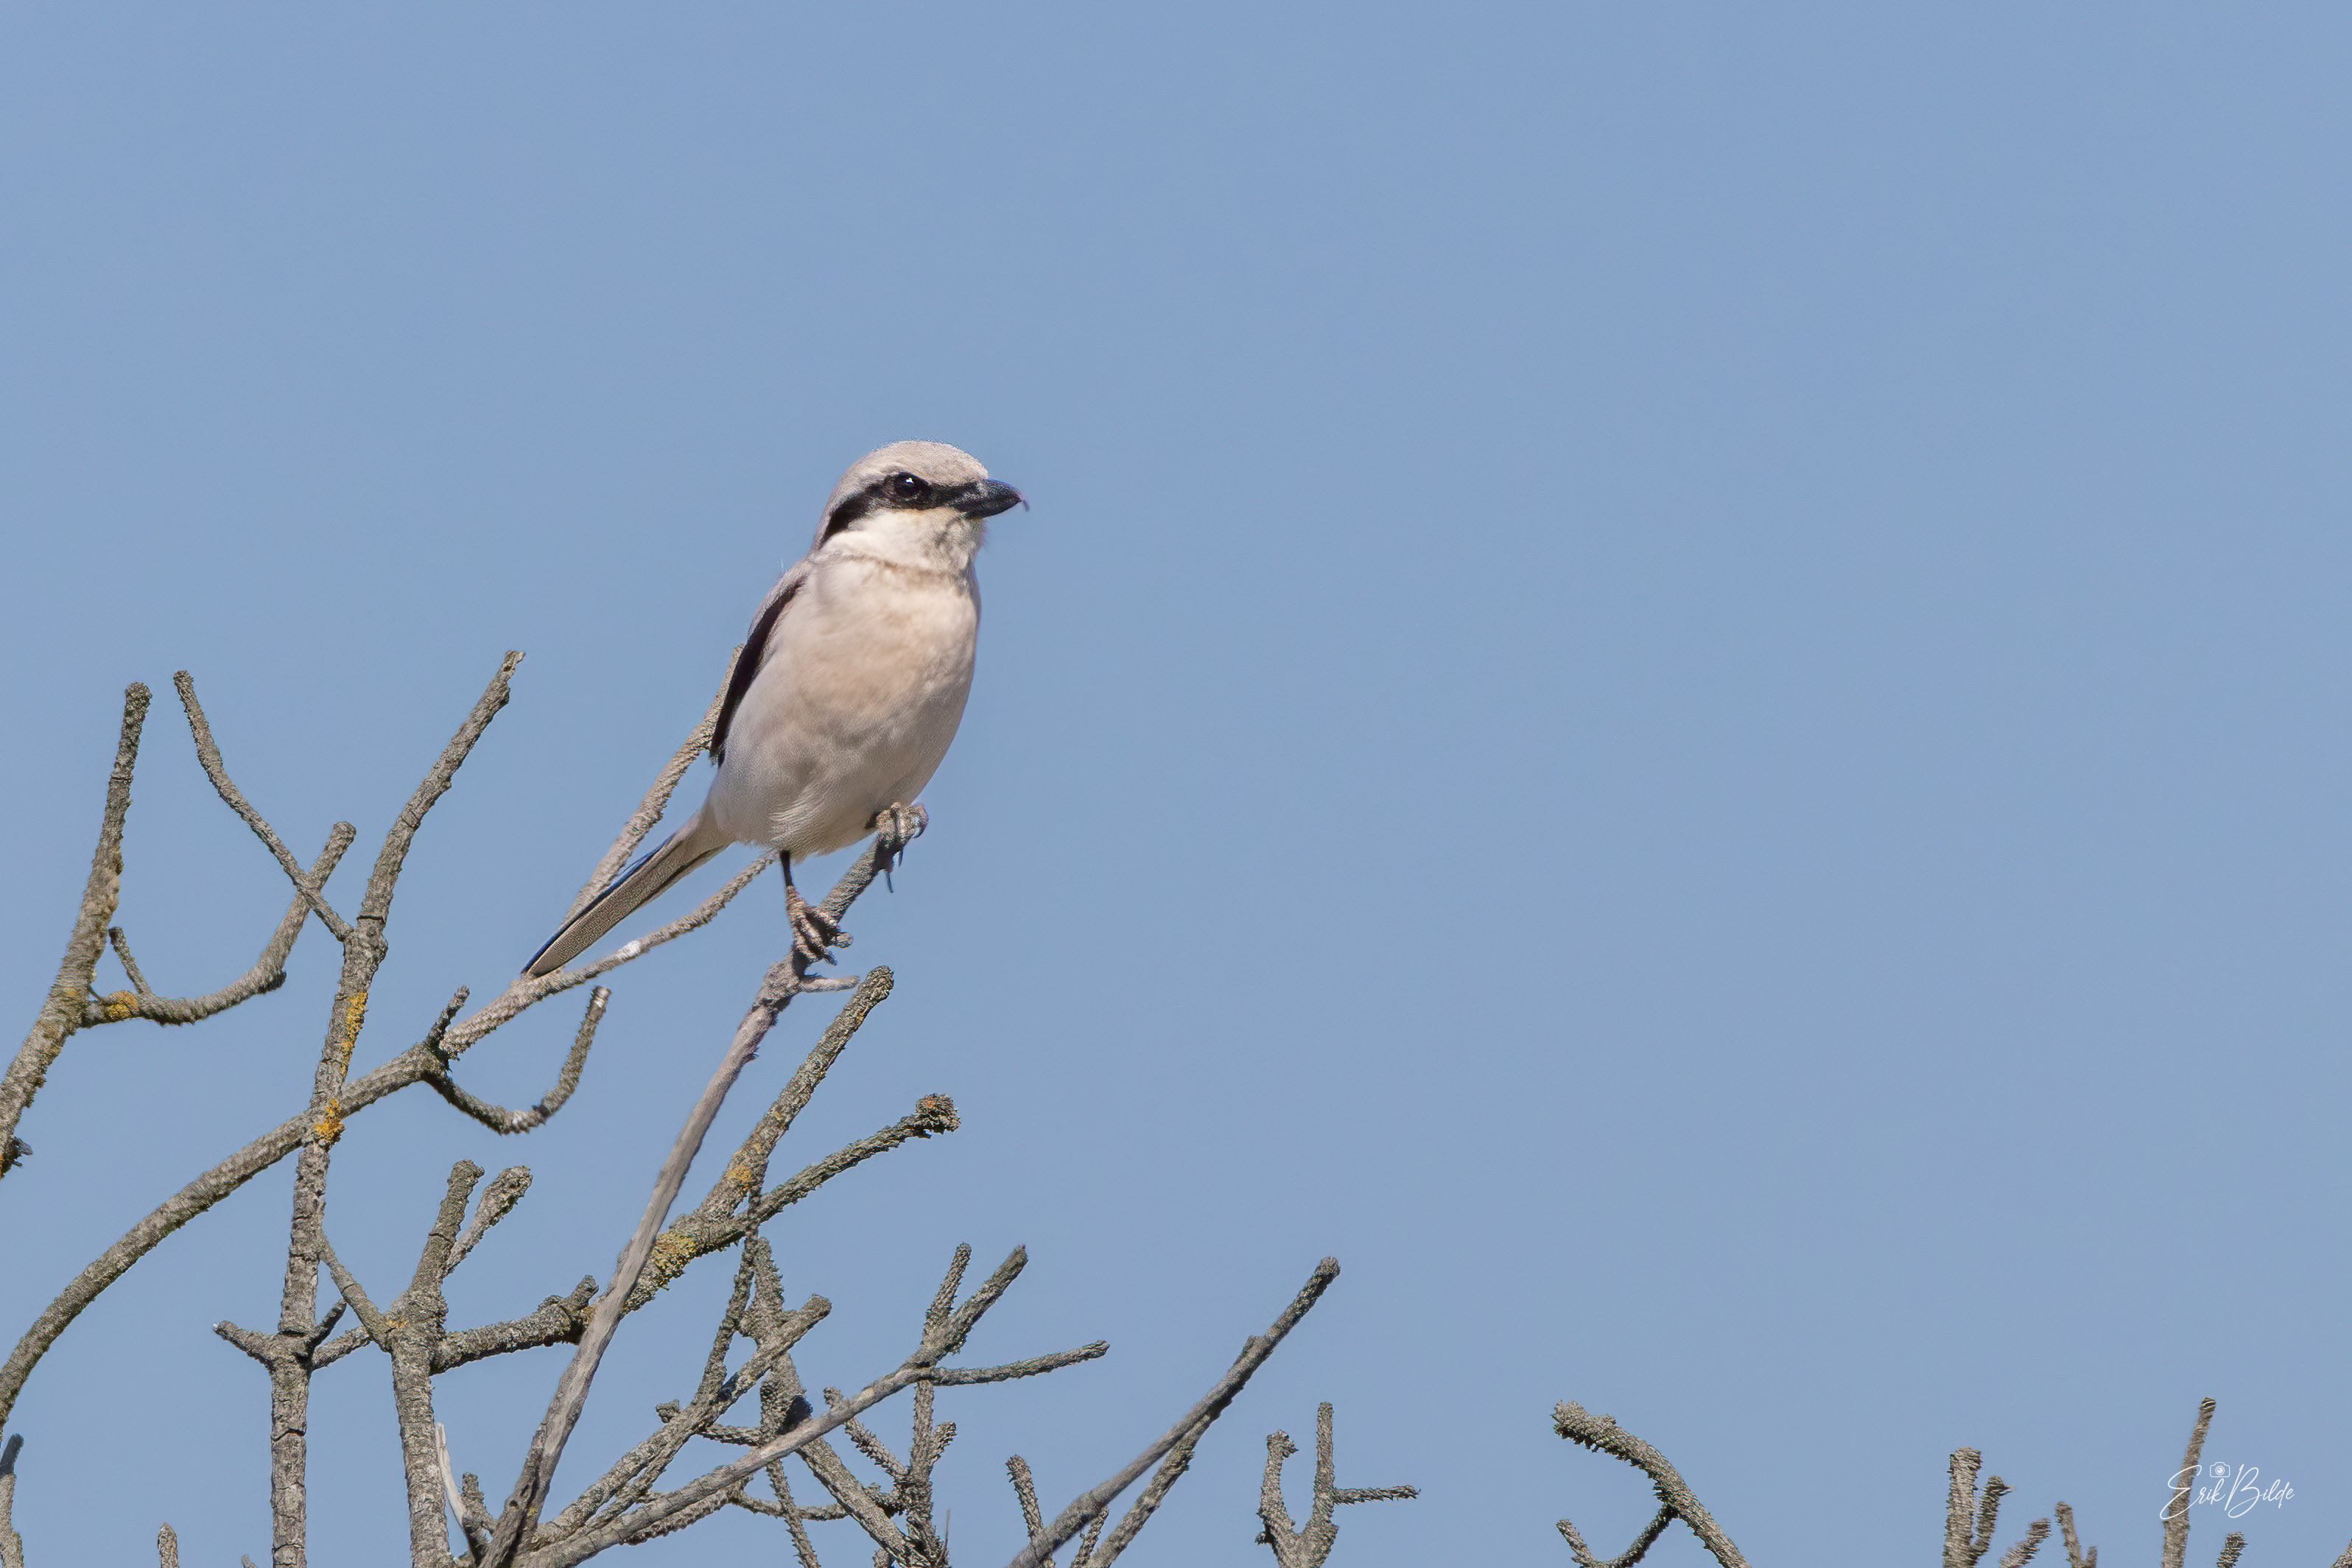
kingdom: Animalia
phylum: Chordata
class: Aves
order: Passeriformes
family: Laniidae
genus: Lanius
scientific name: Lanius excubitor
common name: Stor tornskade
